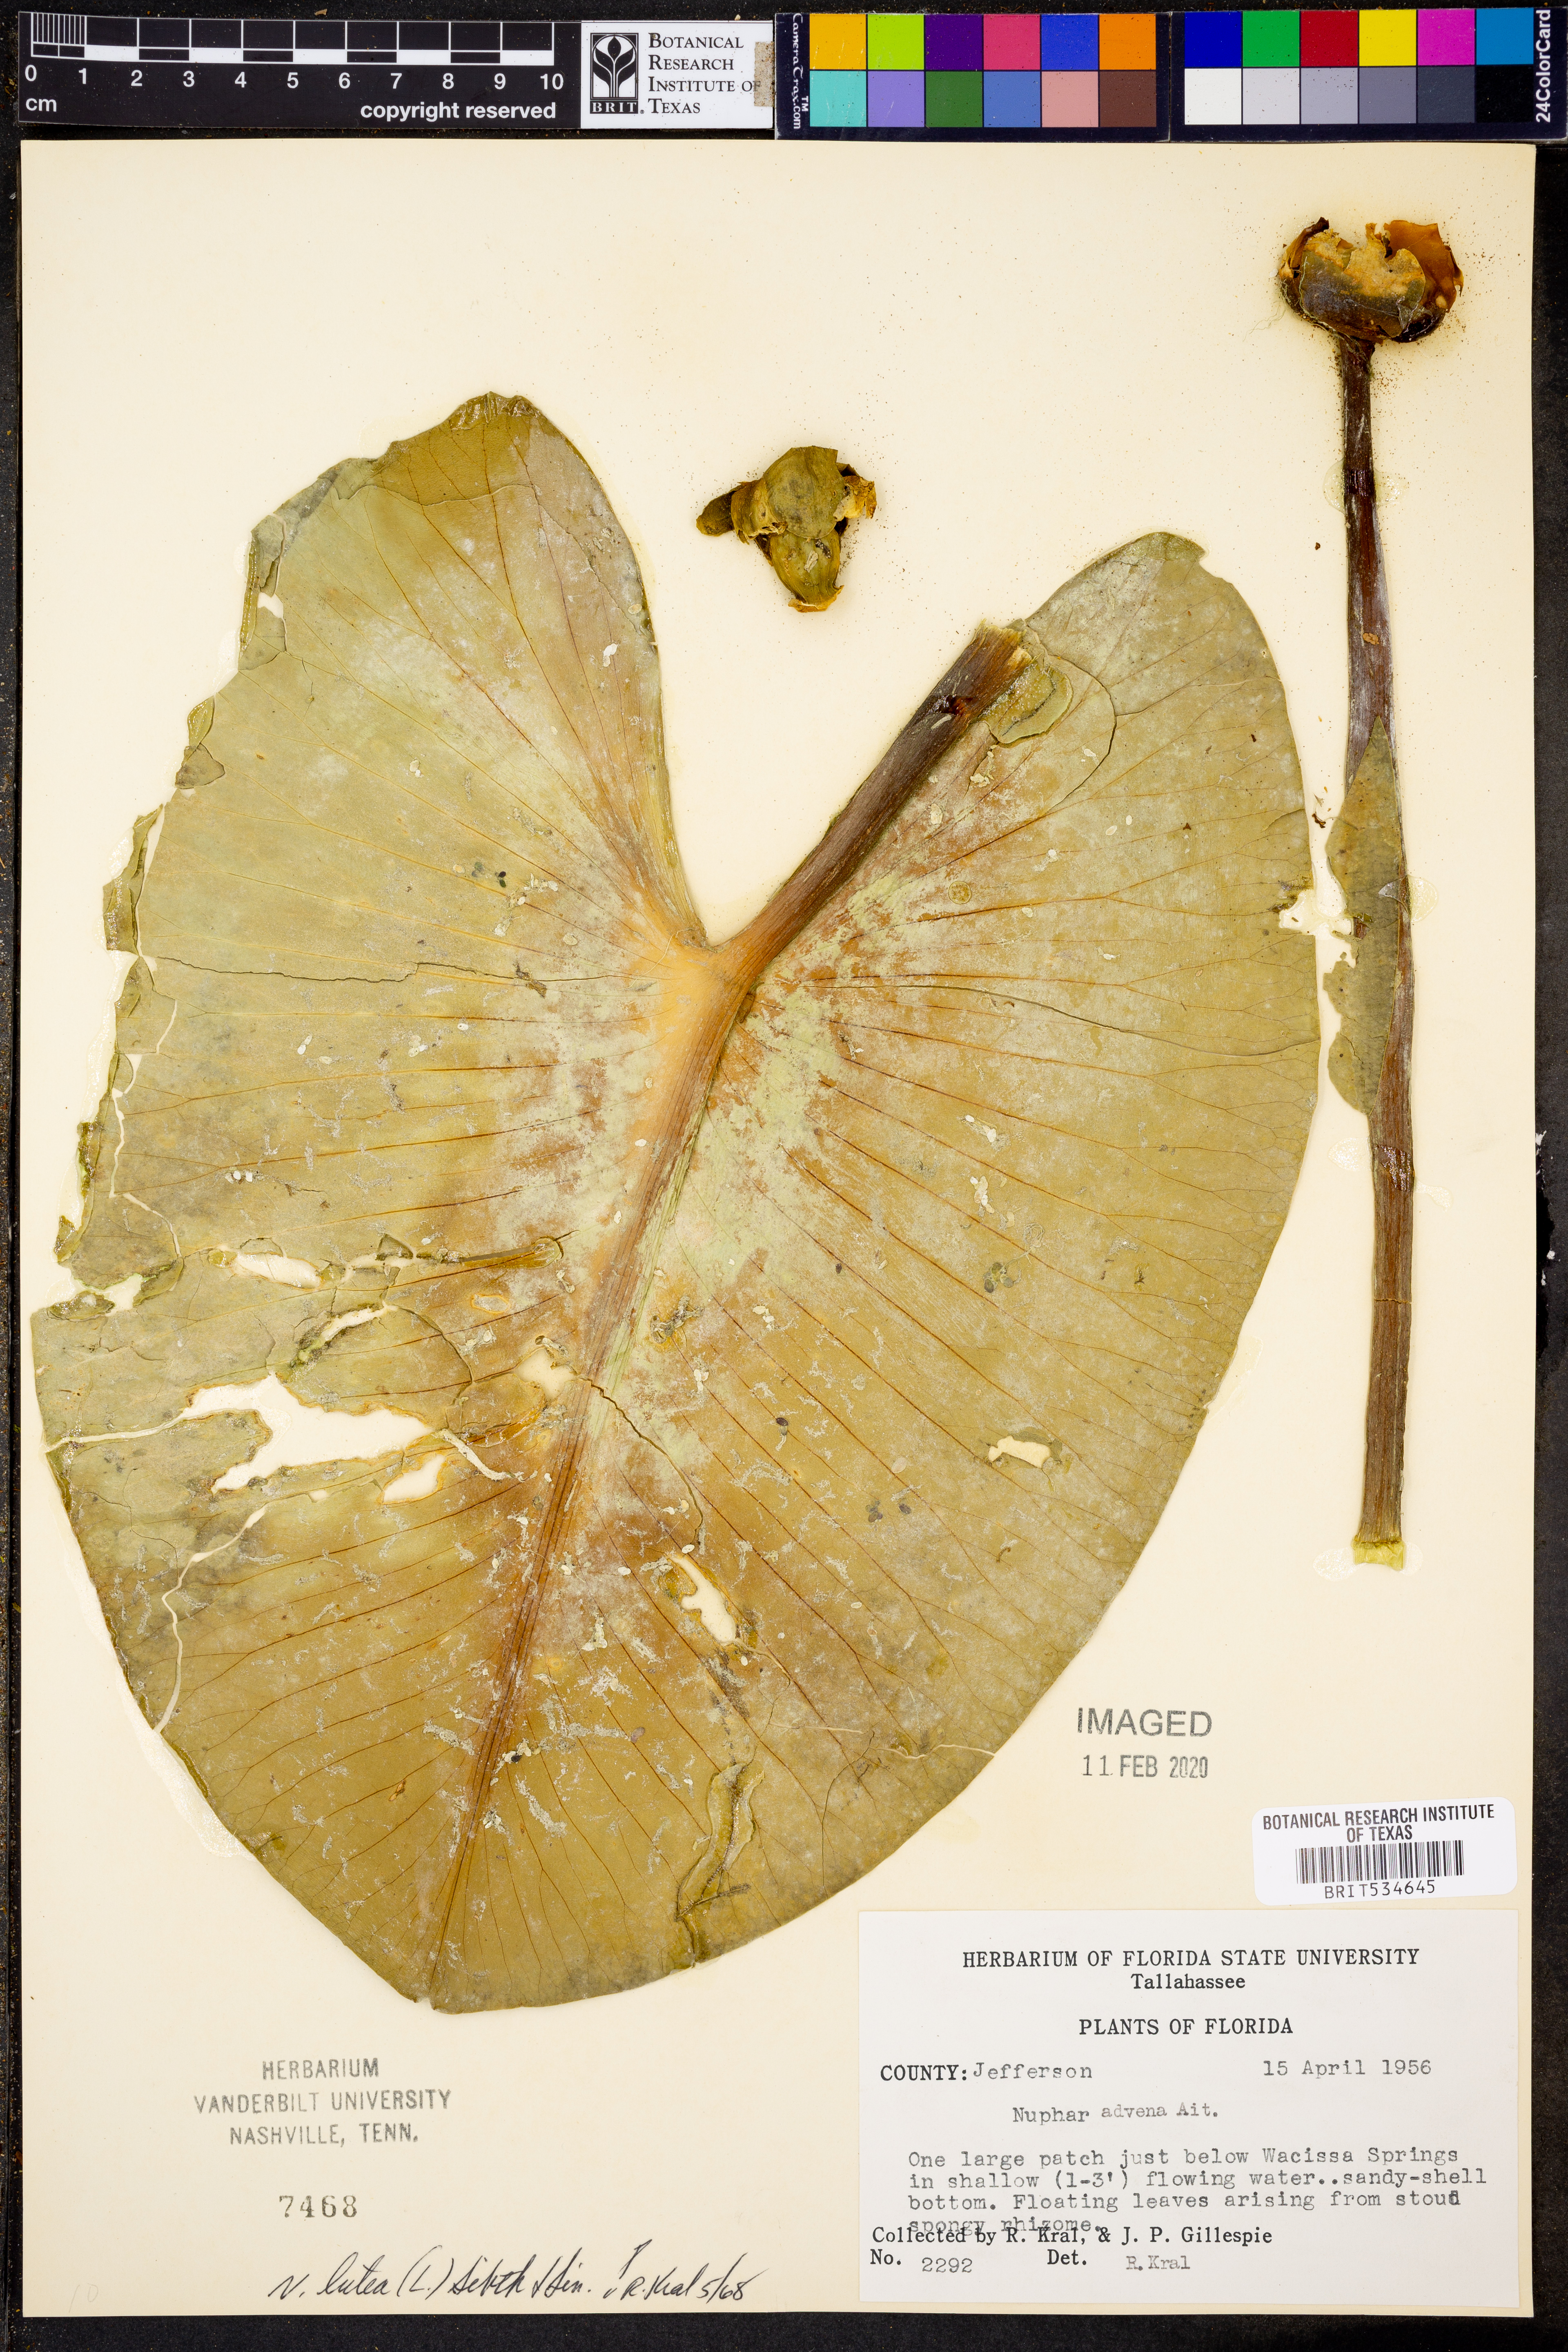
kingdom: Plantae
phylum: Tracheophyta
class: Magnoliopsida
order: Nymphaeales
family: Nymphaeaceae
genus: Nuphar
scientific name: Nuphar lutea
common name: Yellow water-lily
